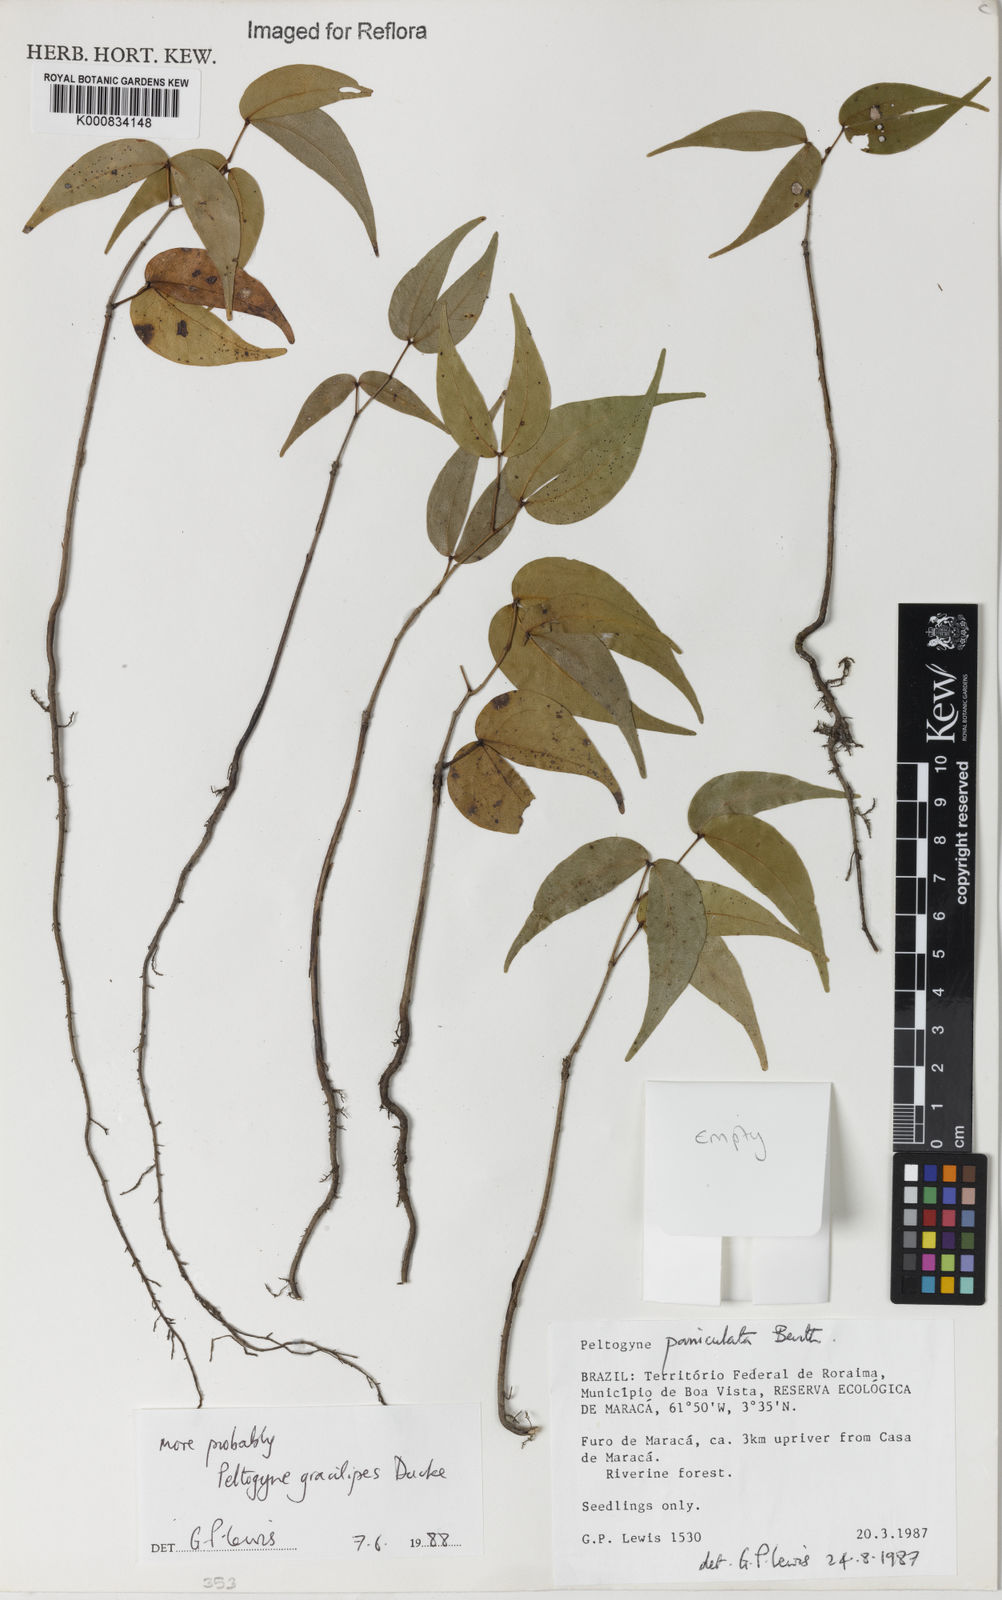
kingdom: Plantae
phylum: Tracheophyta
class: Magnoliopsida
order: Fabales
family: Fabaceae
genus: Peltogyne
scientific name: Peltogyne gracilipes
